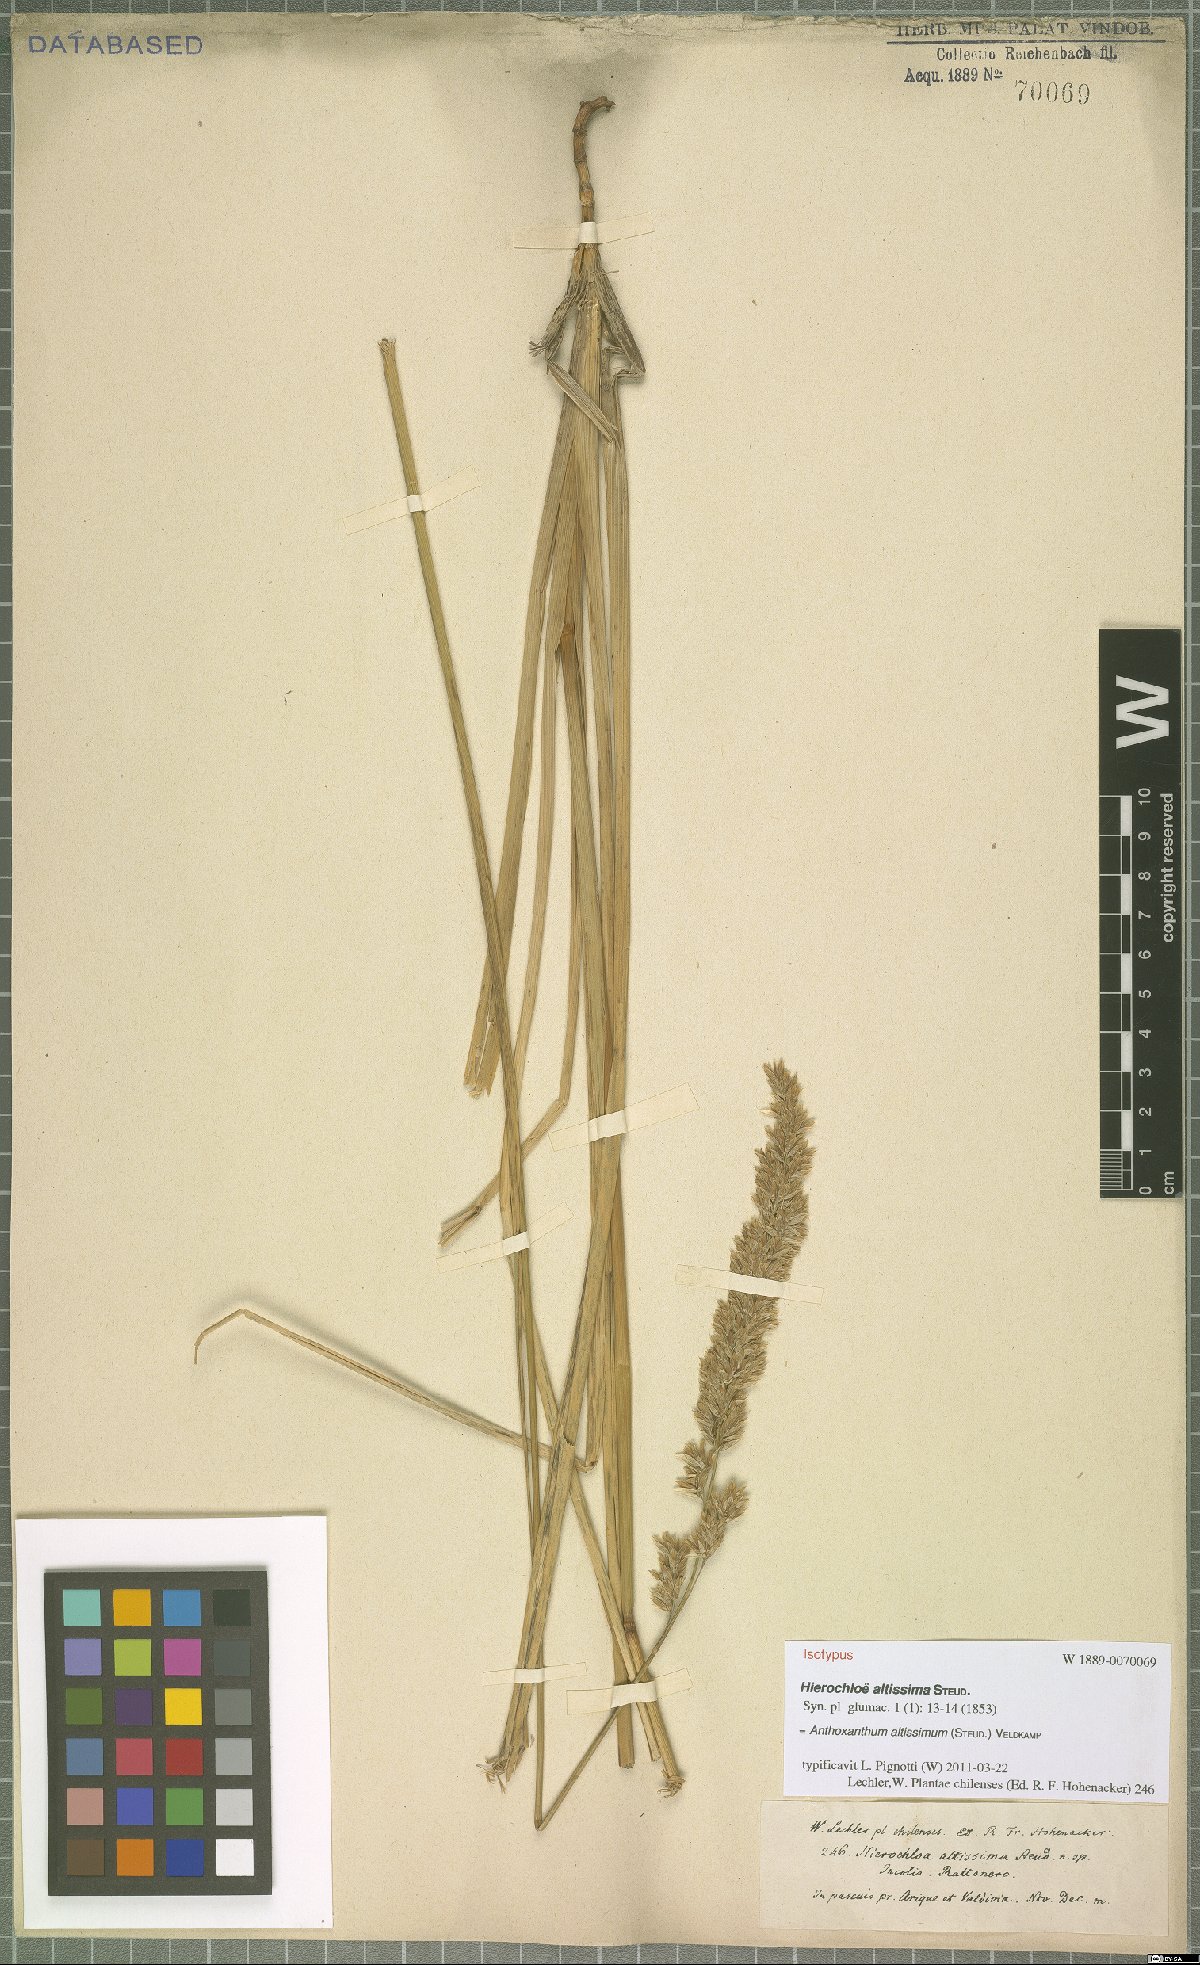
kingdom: Plantae
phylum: Tracheophyta
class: Liliopsida
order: Poales
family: Poaceae
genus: Anthoxanthum
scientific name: Anthoxanthum utriculatum
